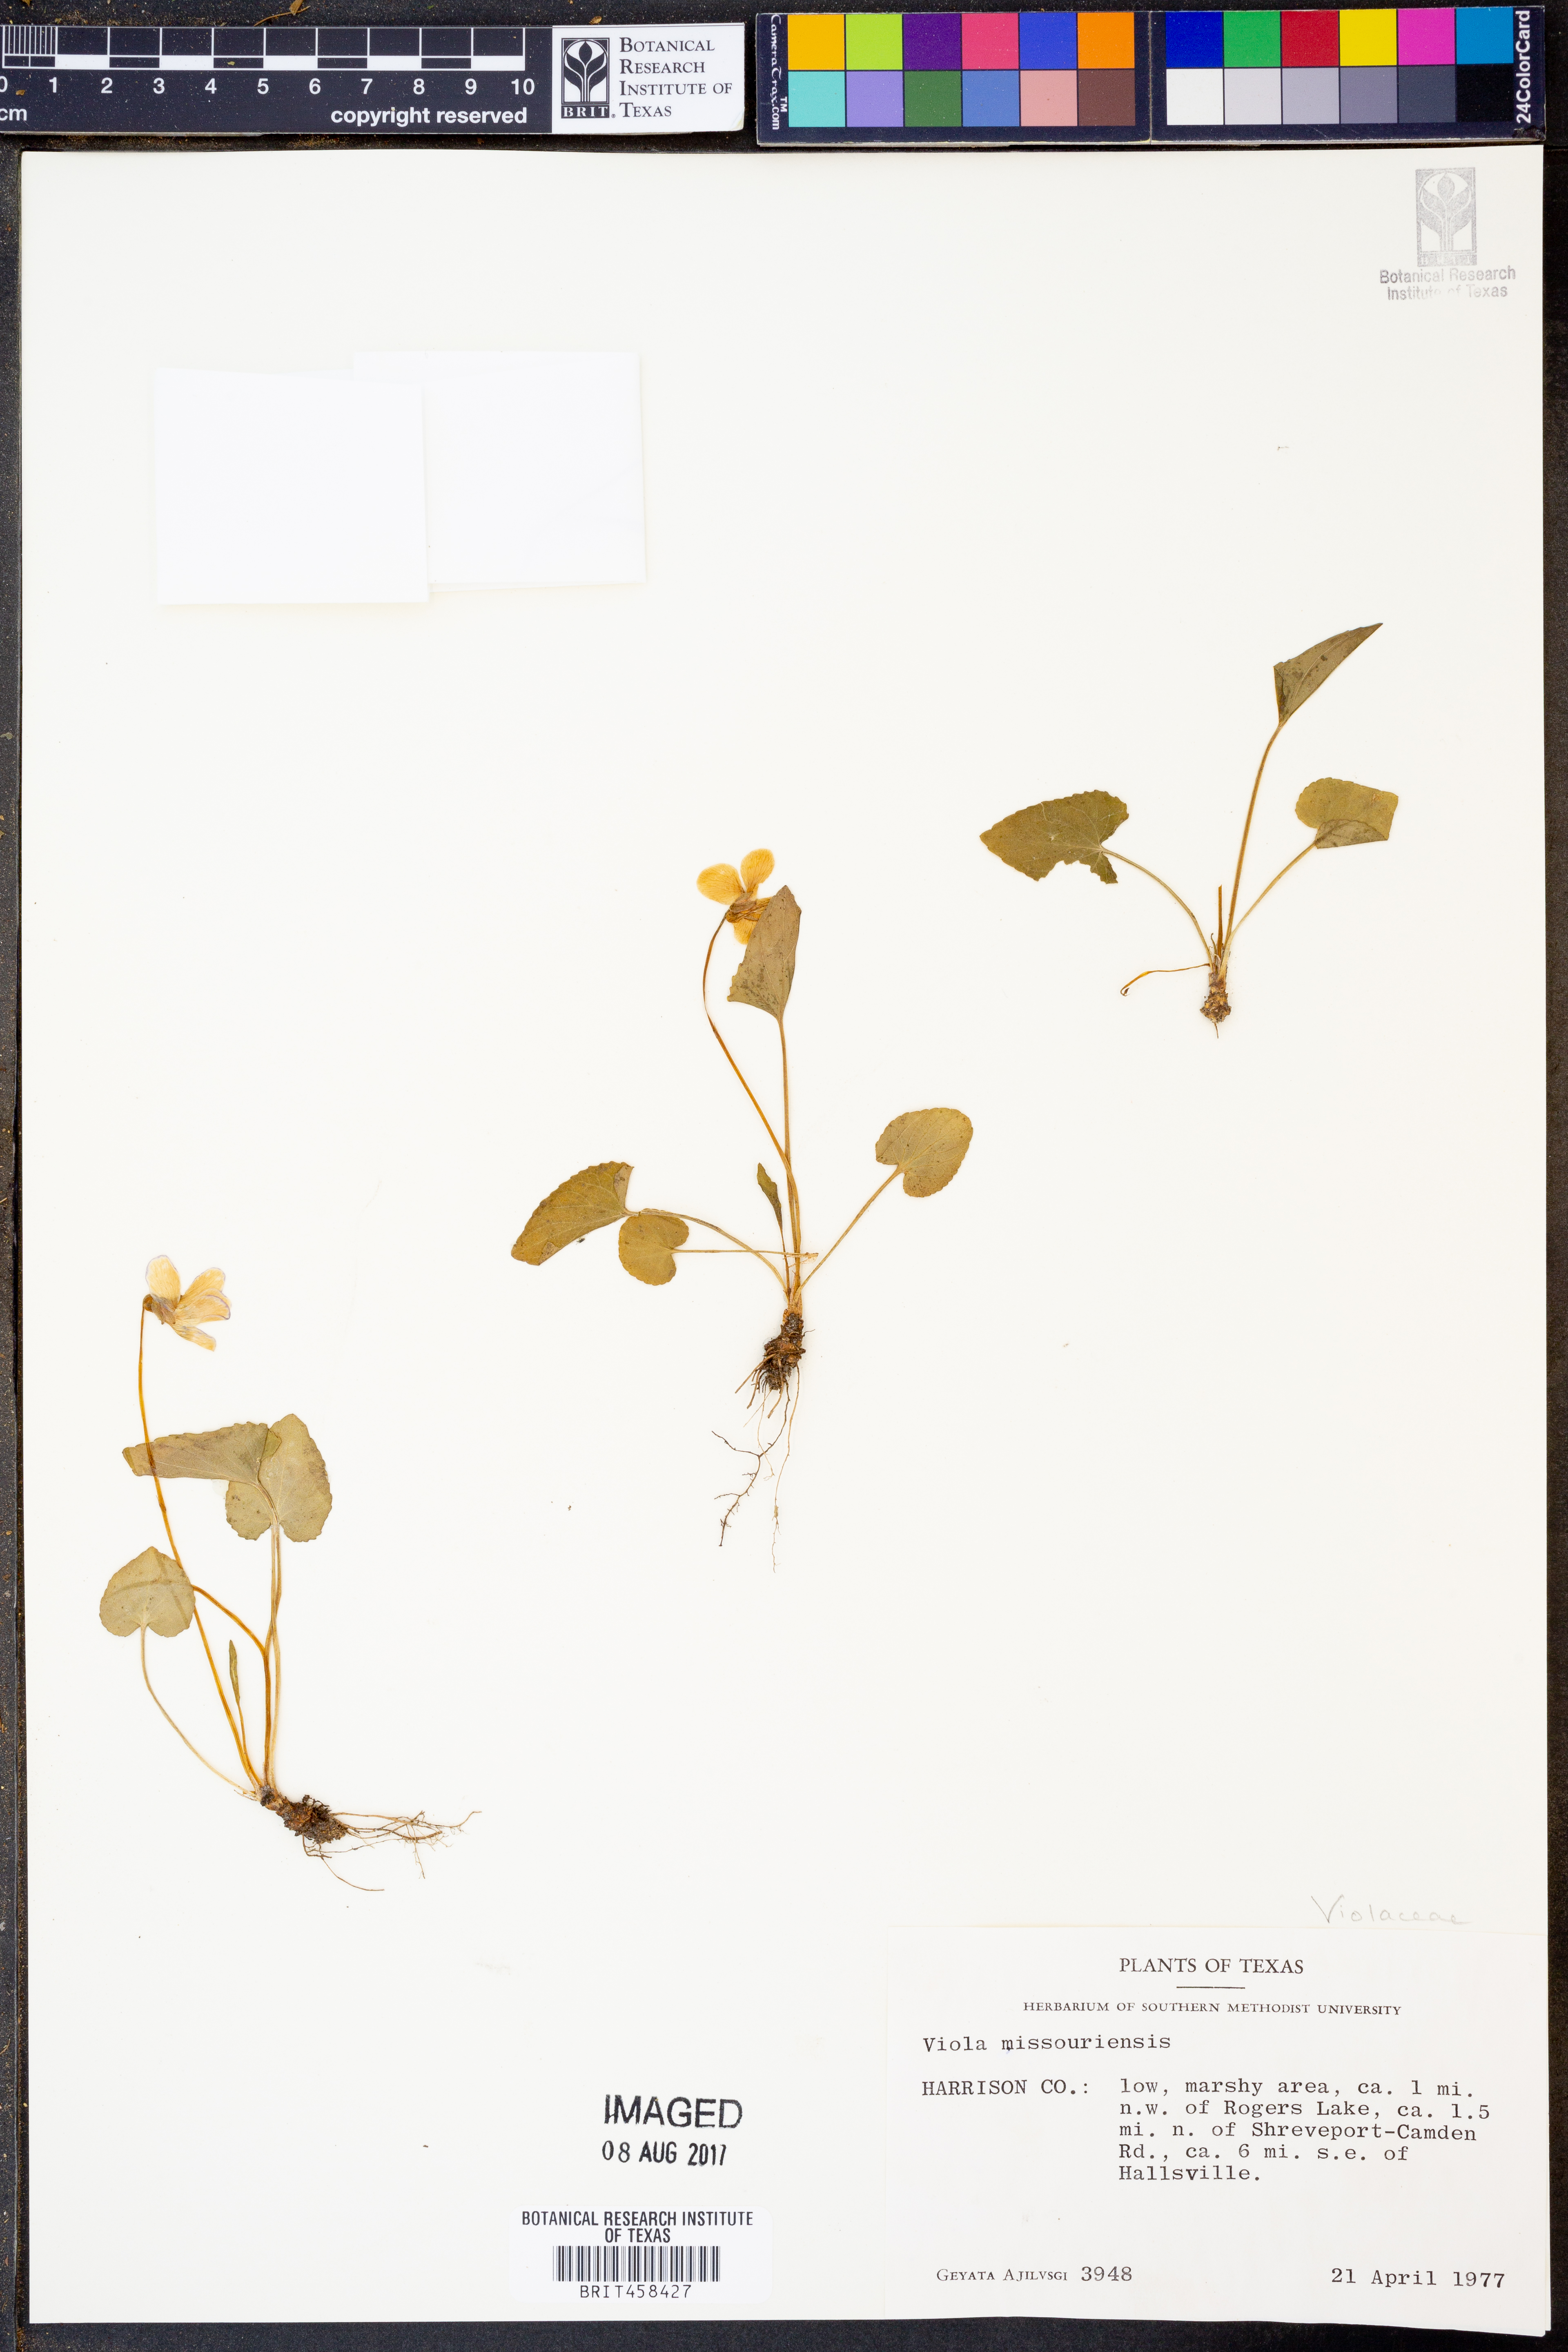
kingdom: Plantae
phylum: Tracheophyta
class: Magnoliopsida
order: Malpighiales
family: Violaceae
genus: Viola
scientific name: Viola missouriensis
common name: Missouri violet
